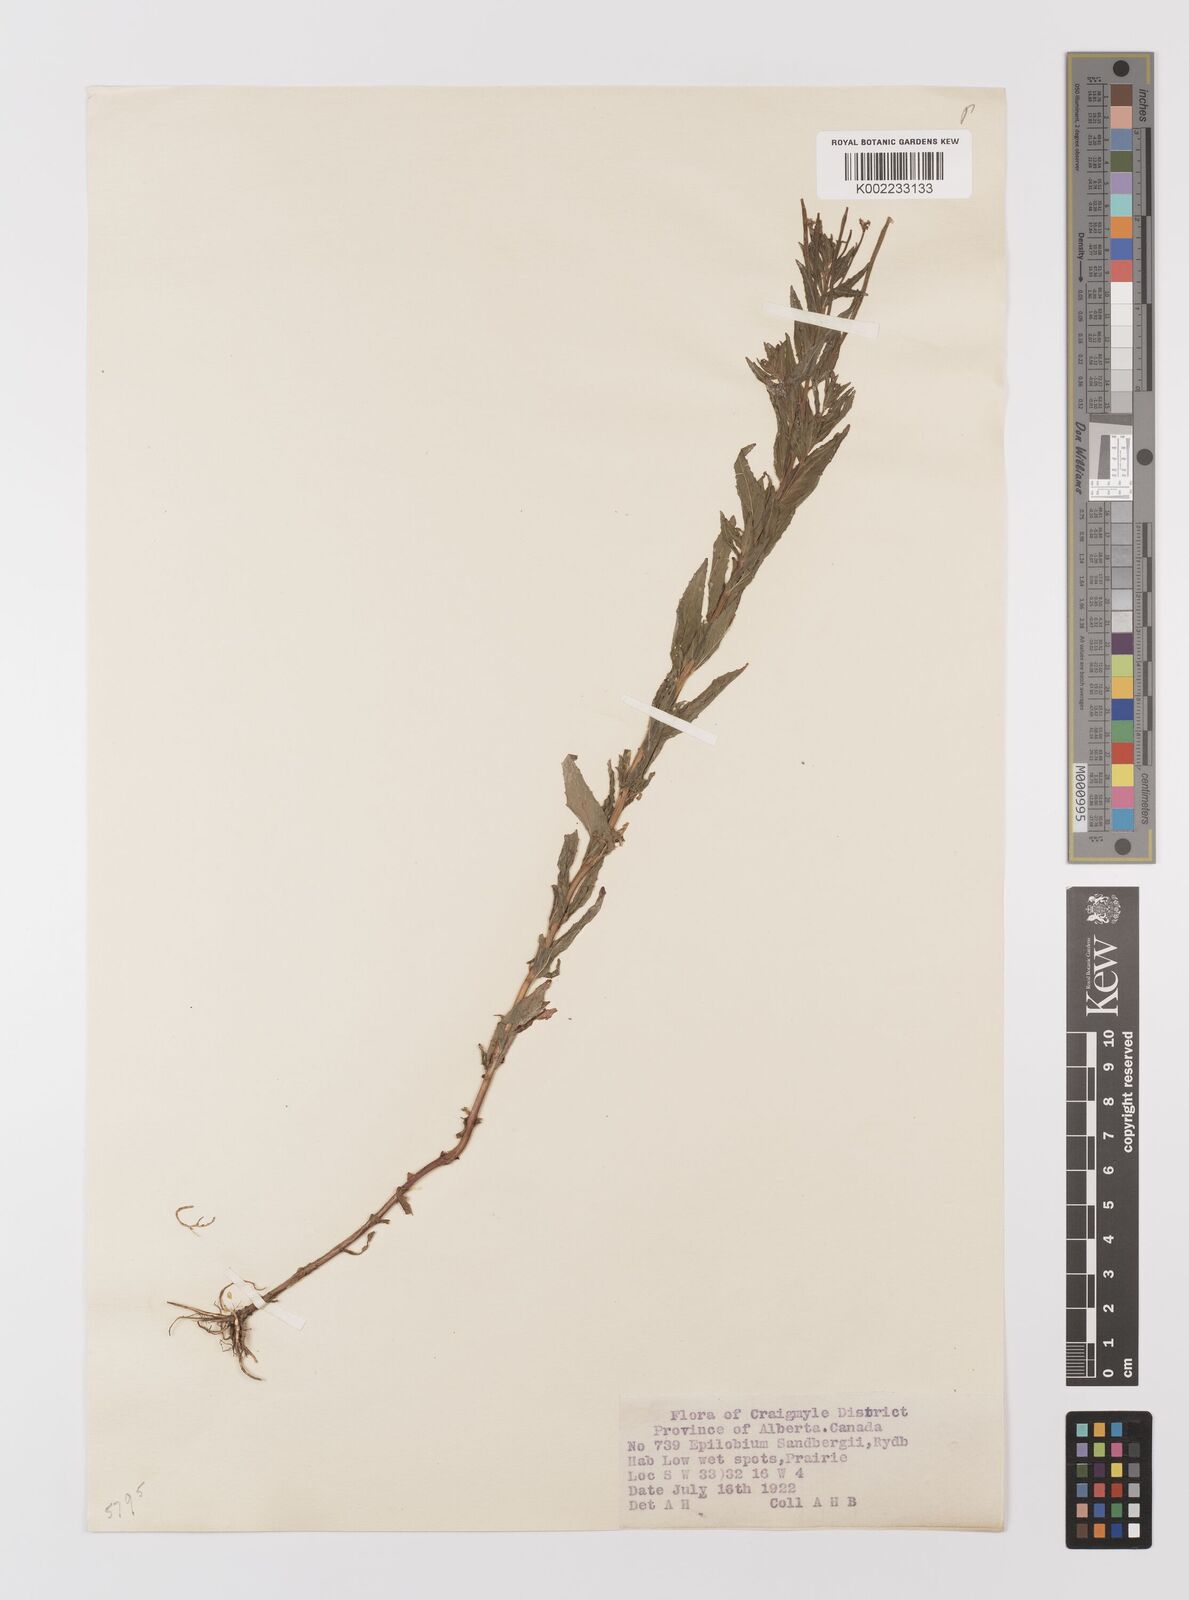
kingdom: Plantae
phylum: Tracheophyta
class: Magnoliopsida
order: Myrtales
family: Onagraceae
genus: Epilobium
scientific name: Epilobium ciliatum
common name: American willowherb
